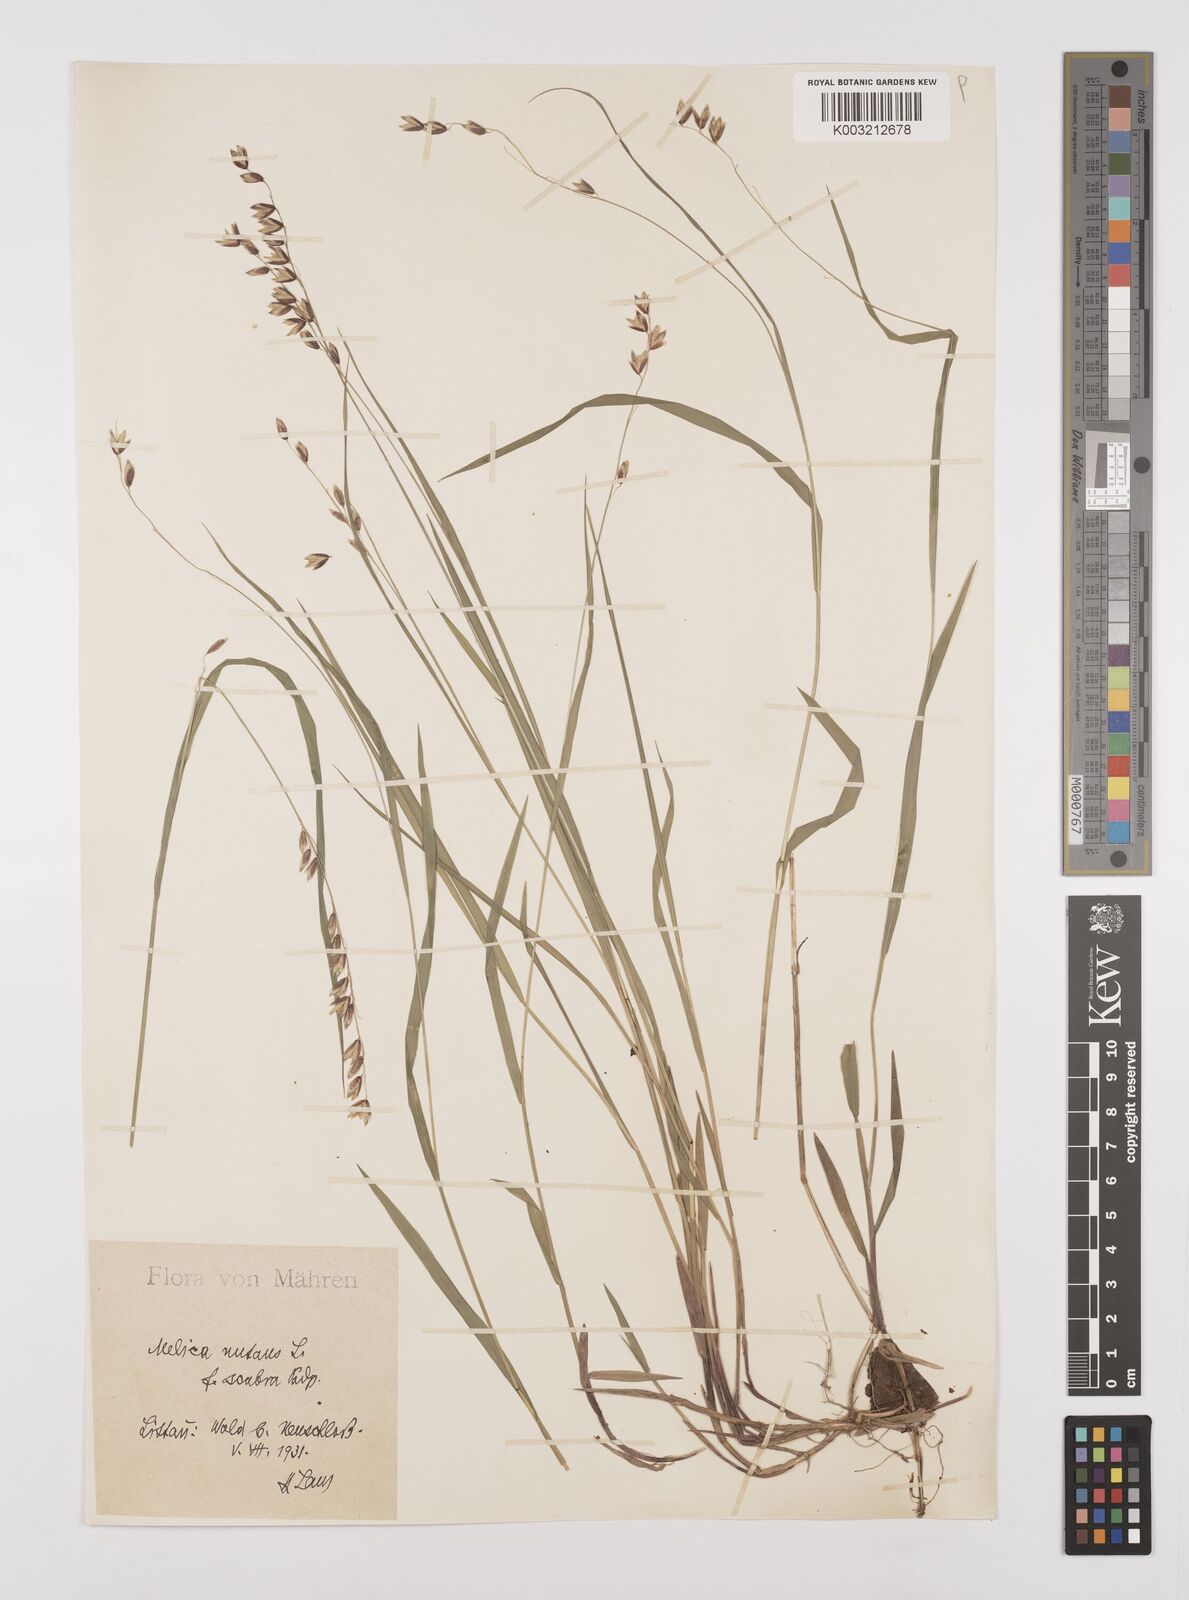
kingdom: Plantae
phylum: Tracheophyta
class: Liliopsida
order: Poales
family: Poaceae
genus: Melica
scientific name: Melica nutans
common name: Mountain melick
